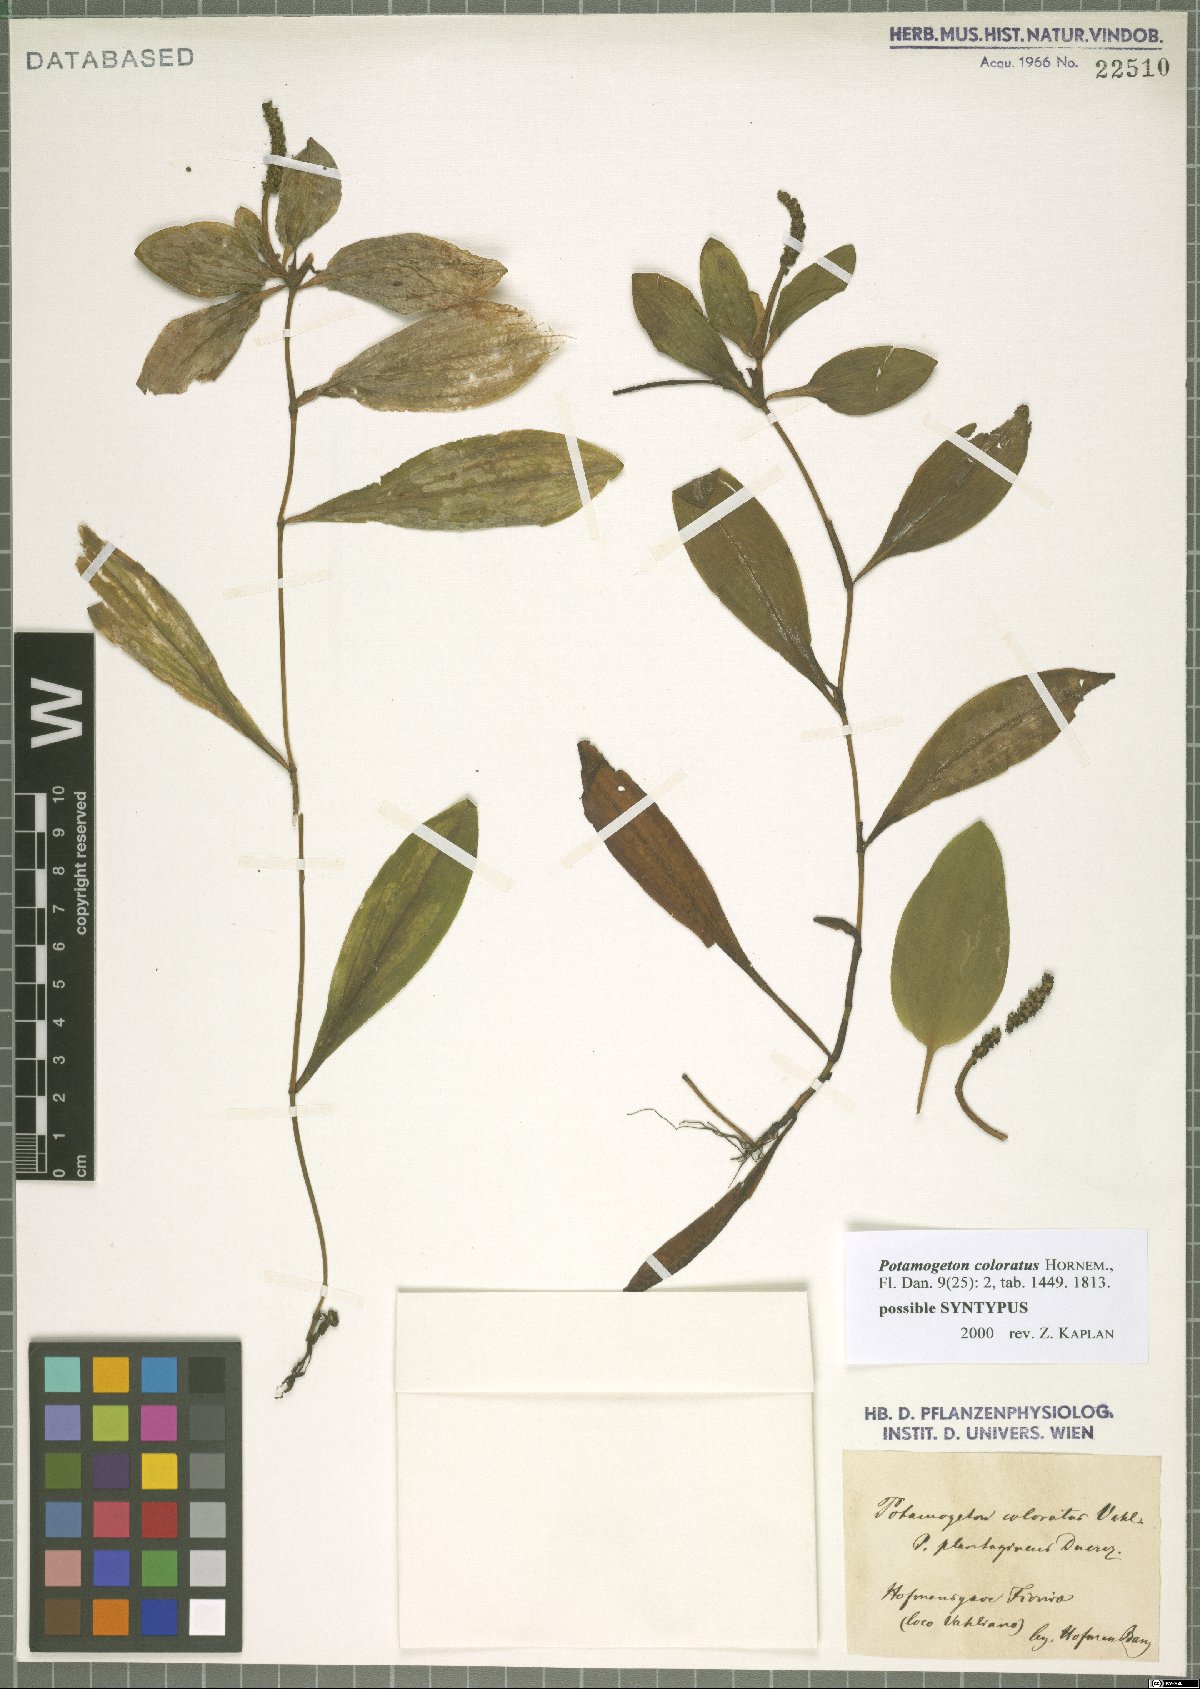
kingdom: Plantae
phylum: Tracheophyta
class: Liliopsida
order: Alismatales
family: Potamogetonaceae
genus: Potamogeton
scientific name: Potamogeton coloratus
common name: Fen pondweed
